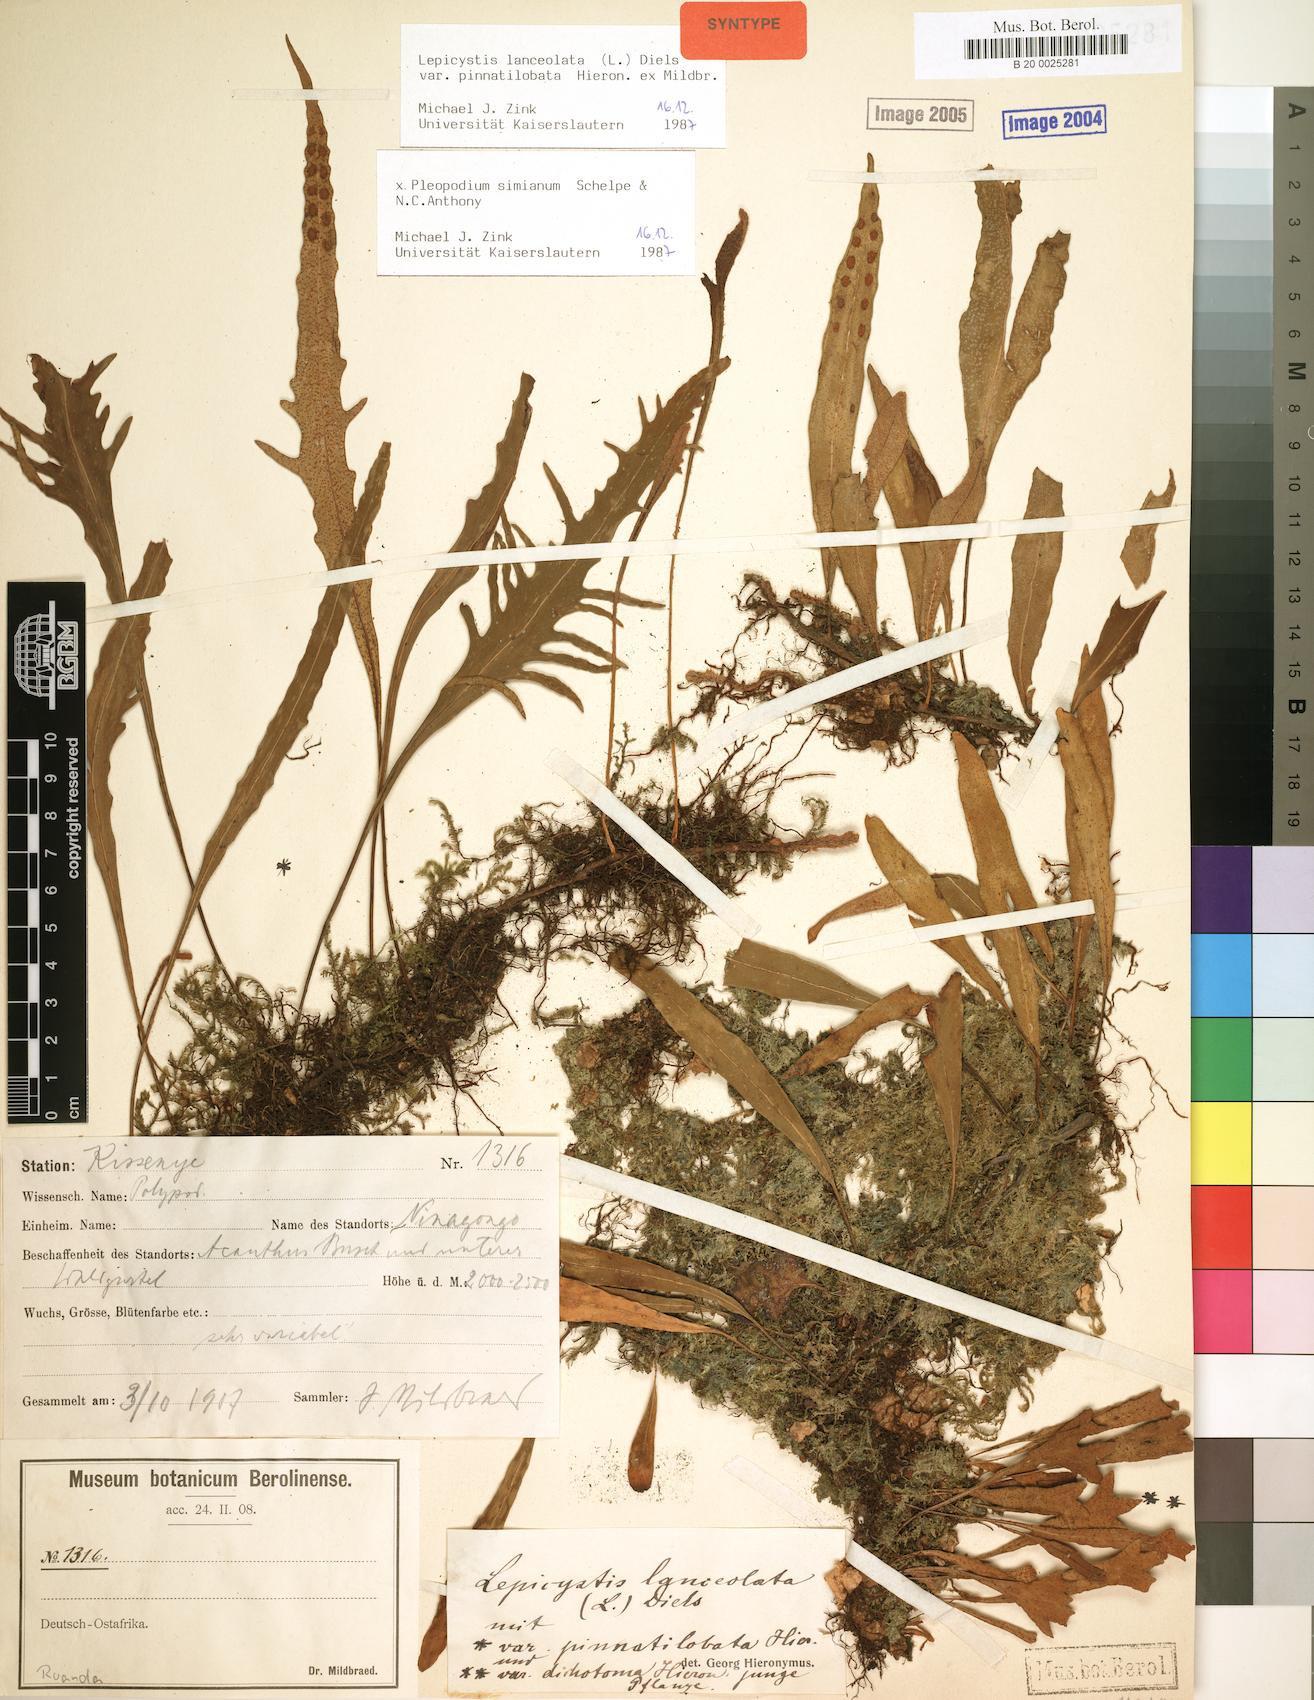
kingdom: Plantae
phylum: Tracheophyta
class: Polypodiopsida
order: Polypodiales
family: Polypodiaceae
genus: Pleopeltis
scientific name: Pleopeltis simiana
